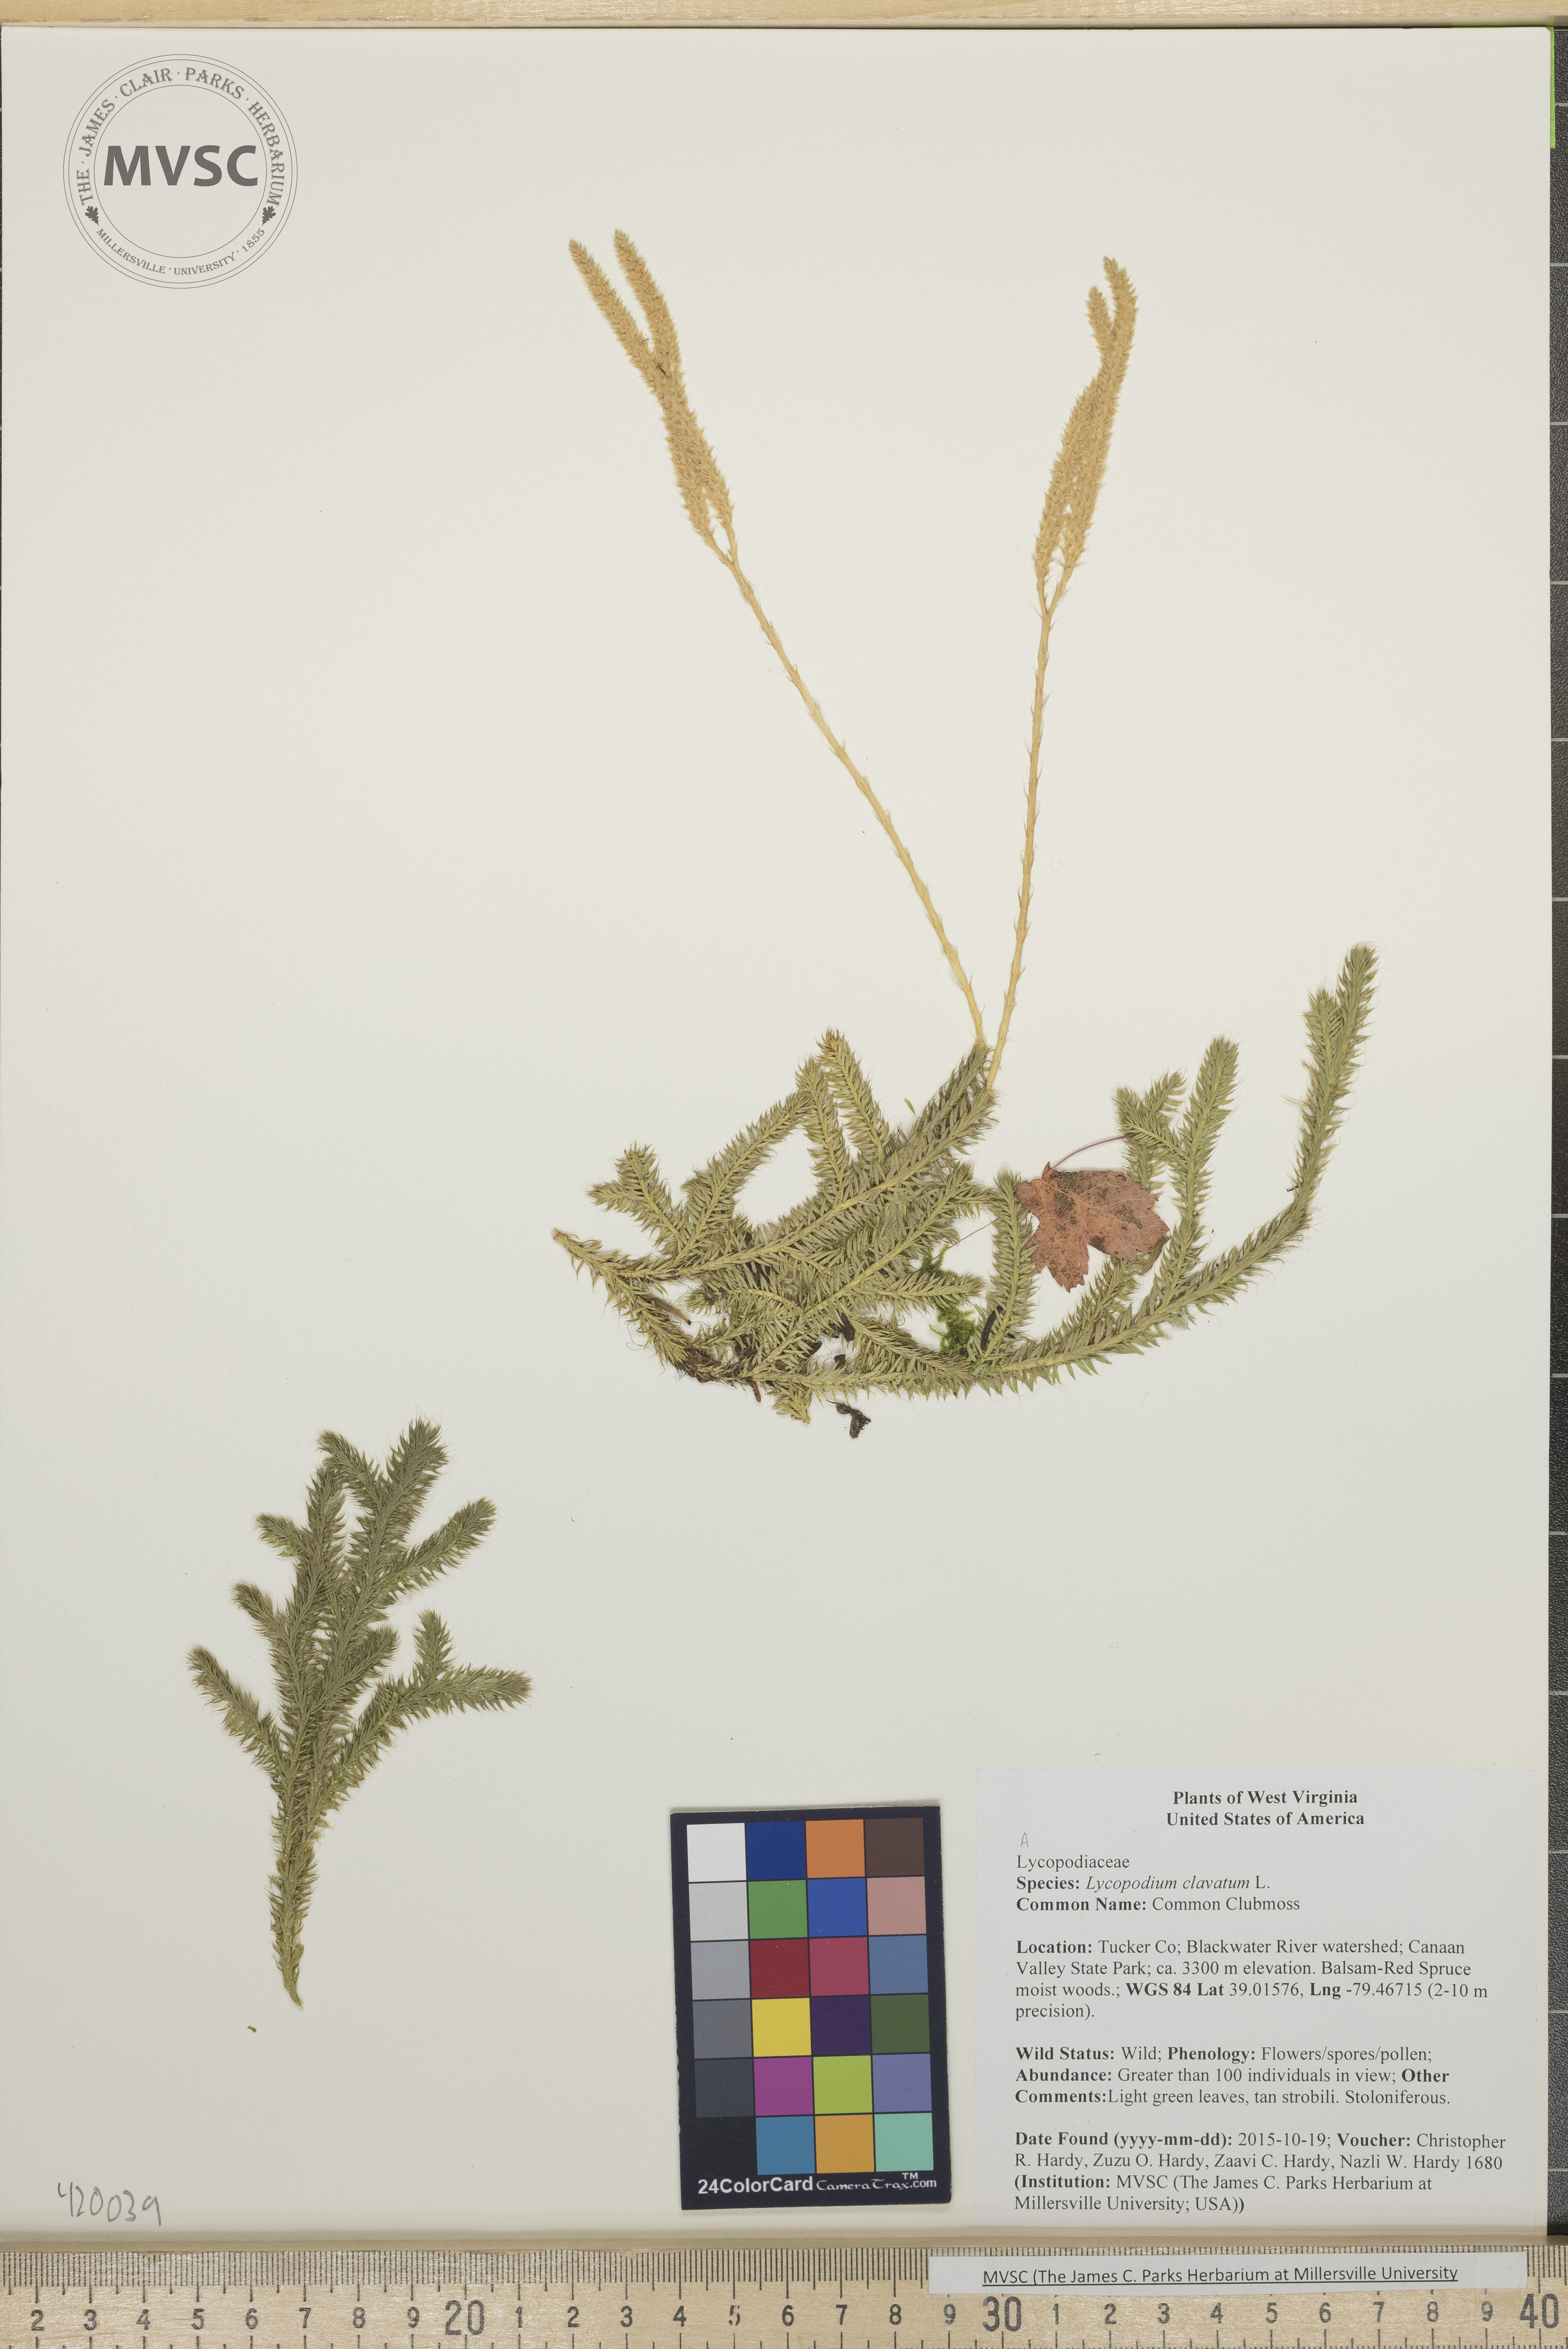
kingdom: Plantae
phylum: Tracheophyta
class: Lycopodiopsida
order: Lycopodiales
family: Lycopodiaceae
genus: Lycopodium
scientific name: Lycopodium clavatum
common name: Common Clubmoss
